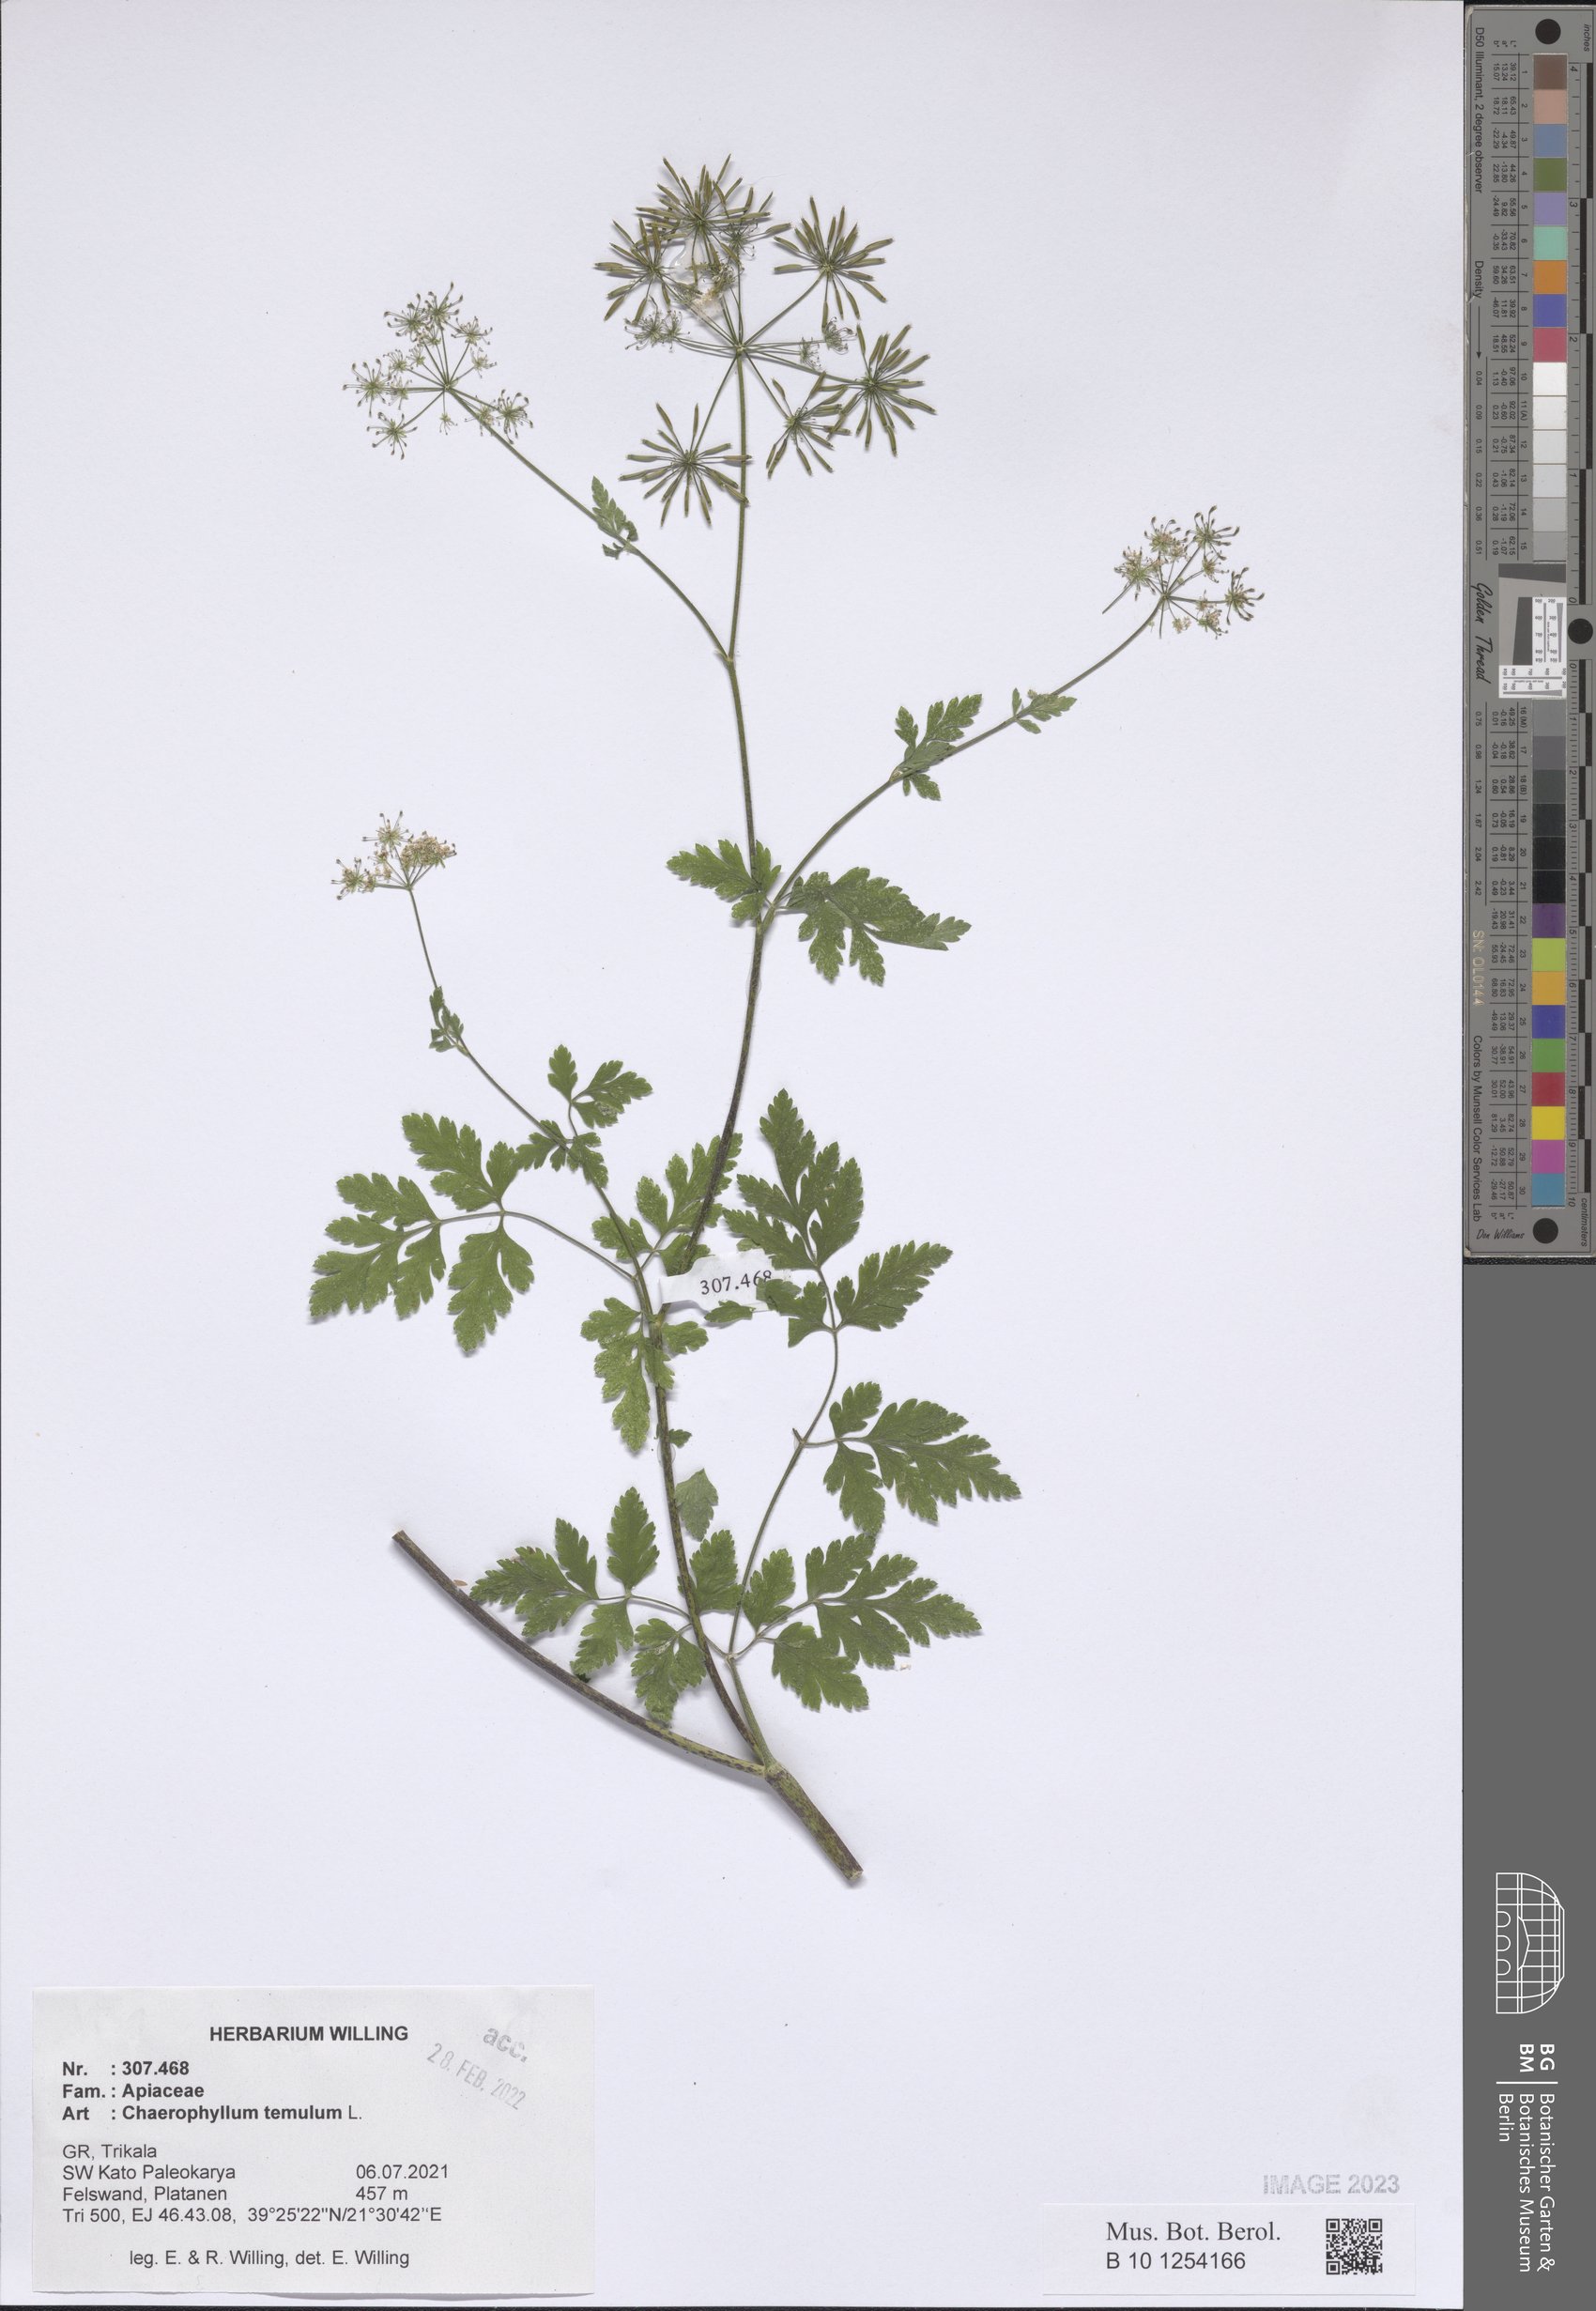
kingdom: Plantae
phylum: Tracheophyta
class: Magnoliopsida
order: Apiales
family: Apiaceae
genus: Chaerophyllum
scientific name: Chaerophyllum temulum
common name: Rough chervil
